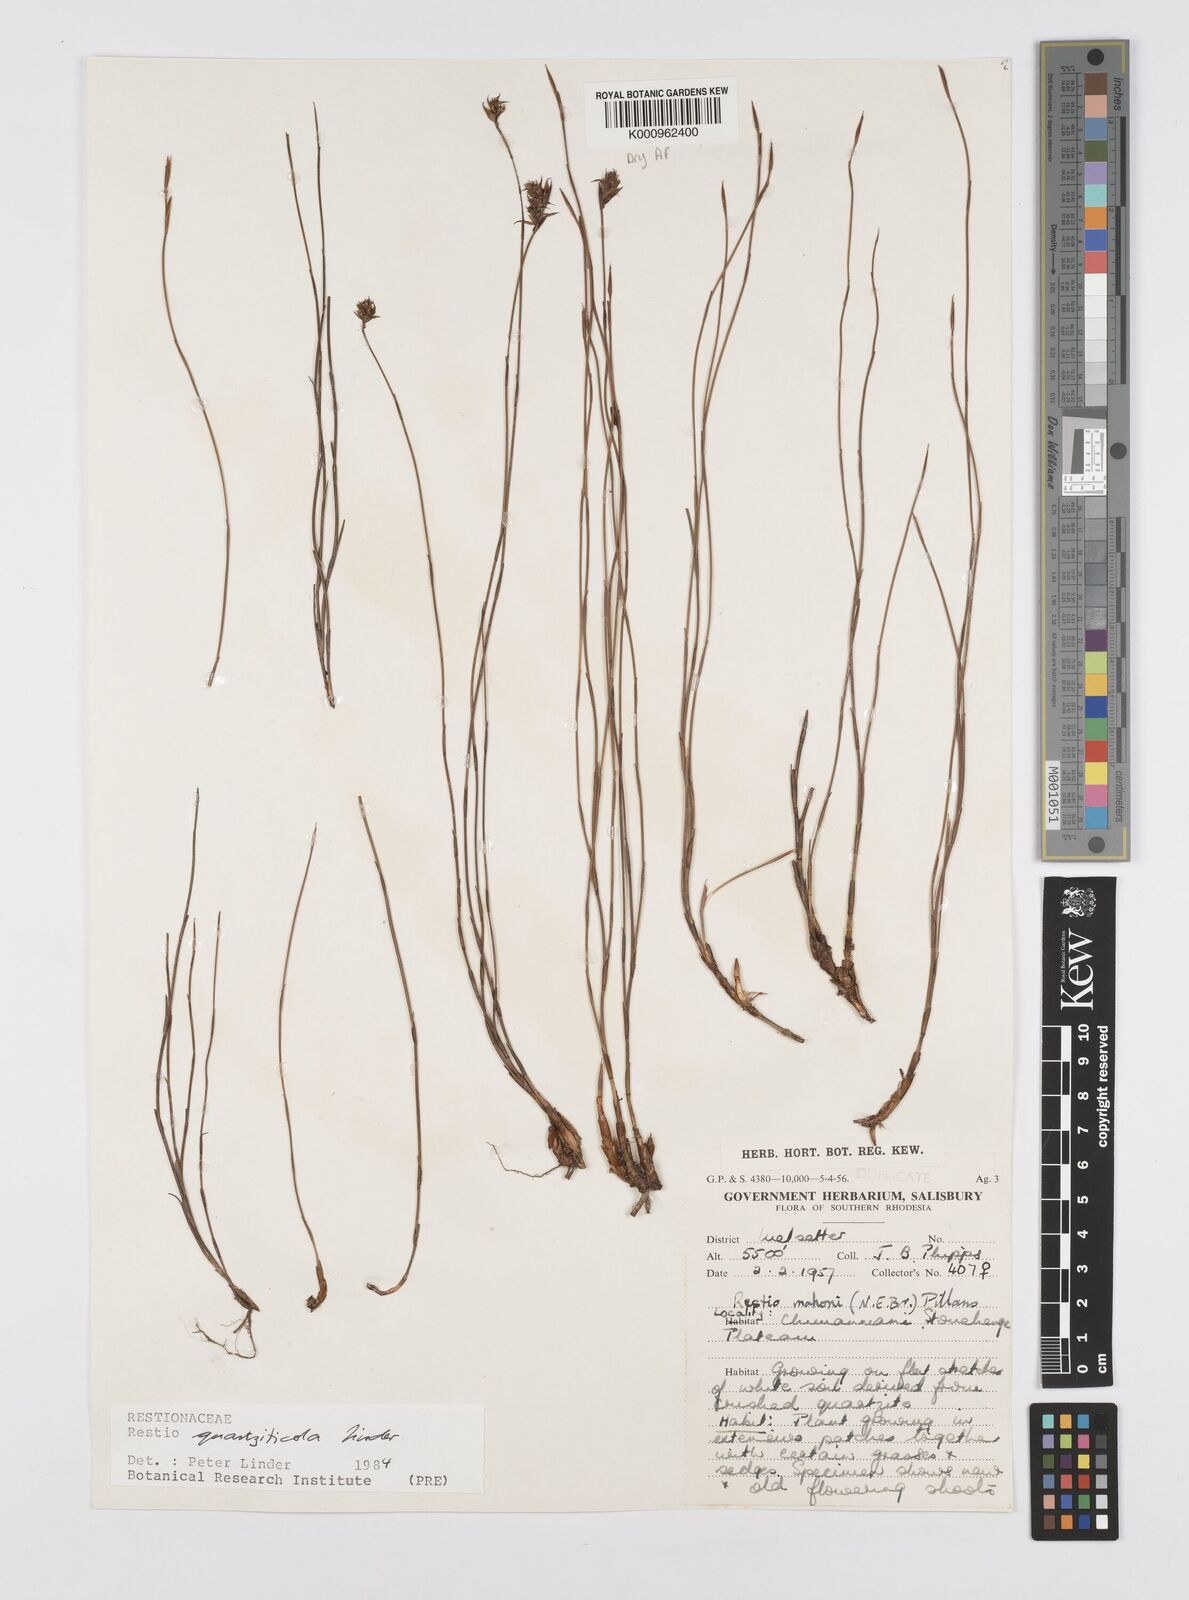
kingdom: Plantae
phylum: Tracheophyta
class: Liliopsida
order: Poales
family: Restionaceae
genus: Platycaulos
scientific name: Platycaulos quartziticola
